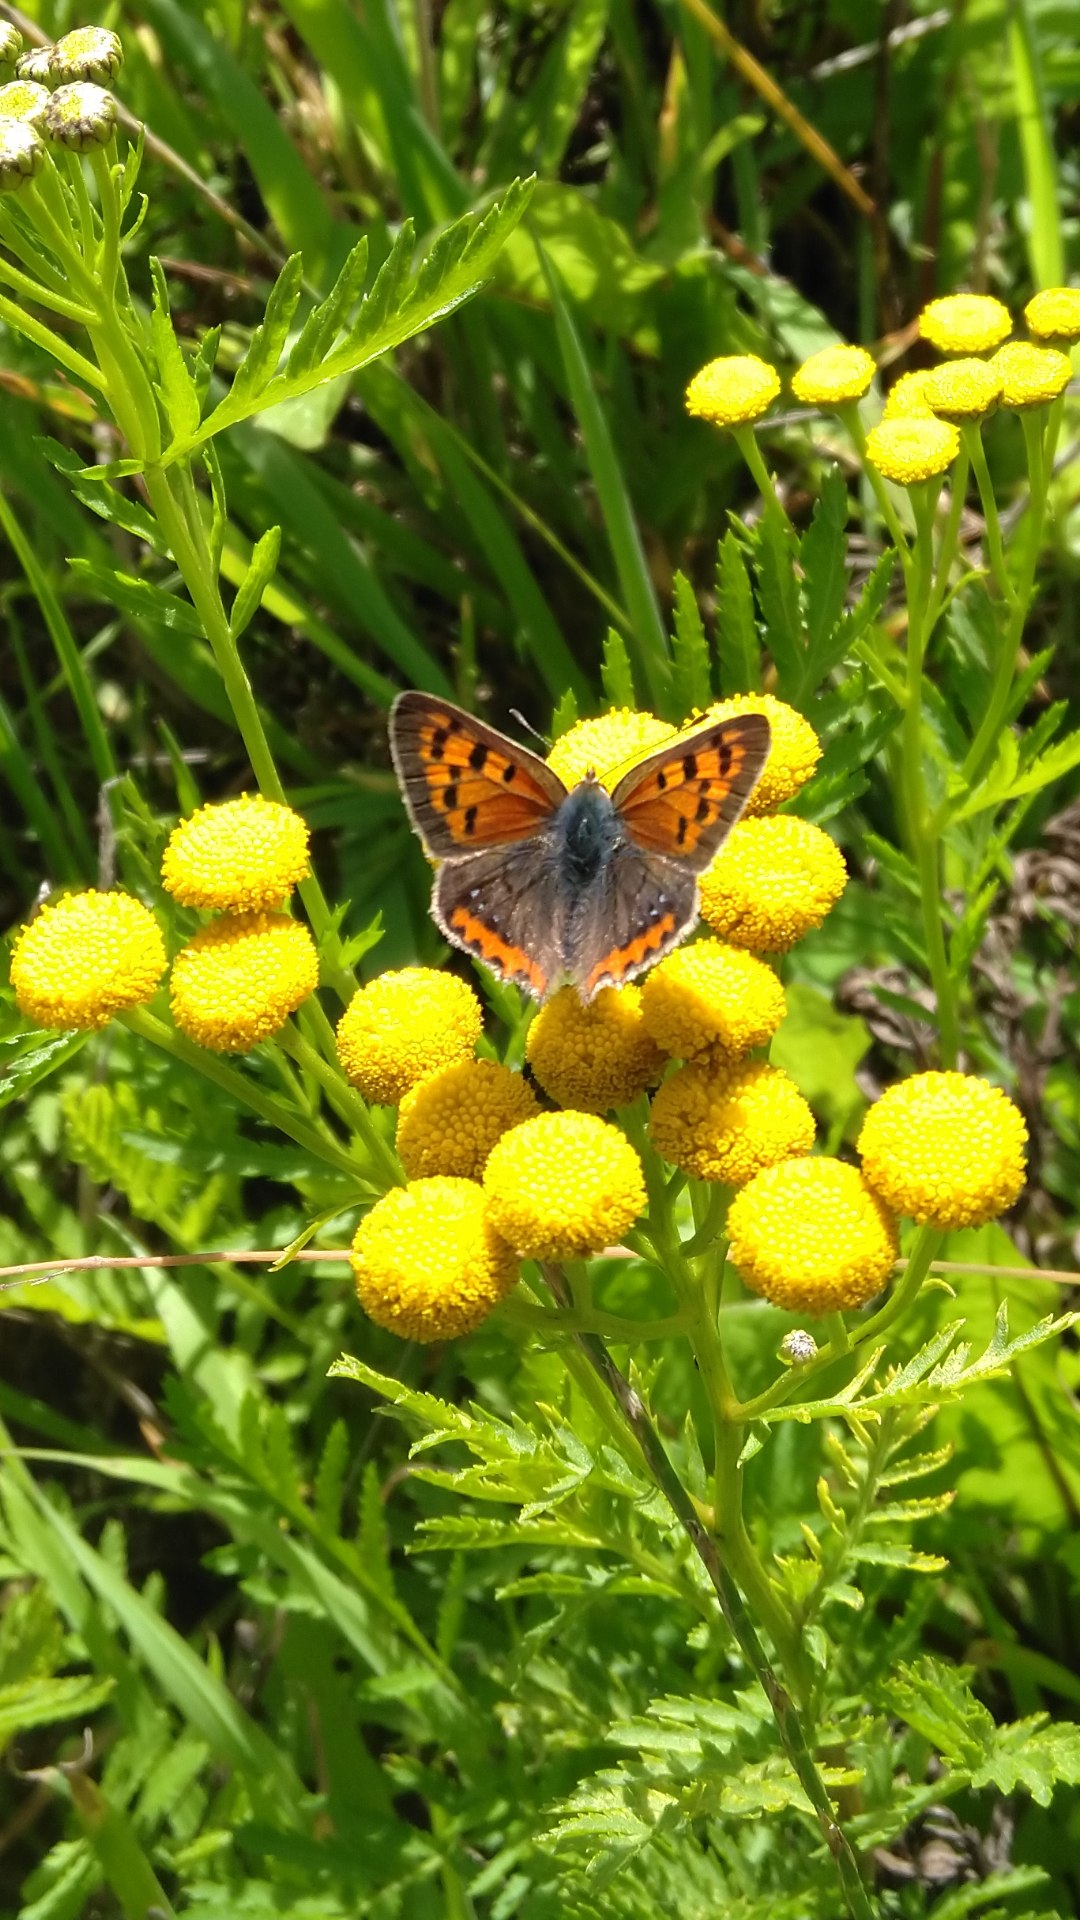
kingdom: Animalia
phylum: Arthropoda
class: Insecta
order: Lepidoptera
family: Lycaenidae
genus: Lycaena
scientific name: Lycaena phlaeas
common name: Lille ildfugl
